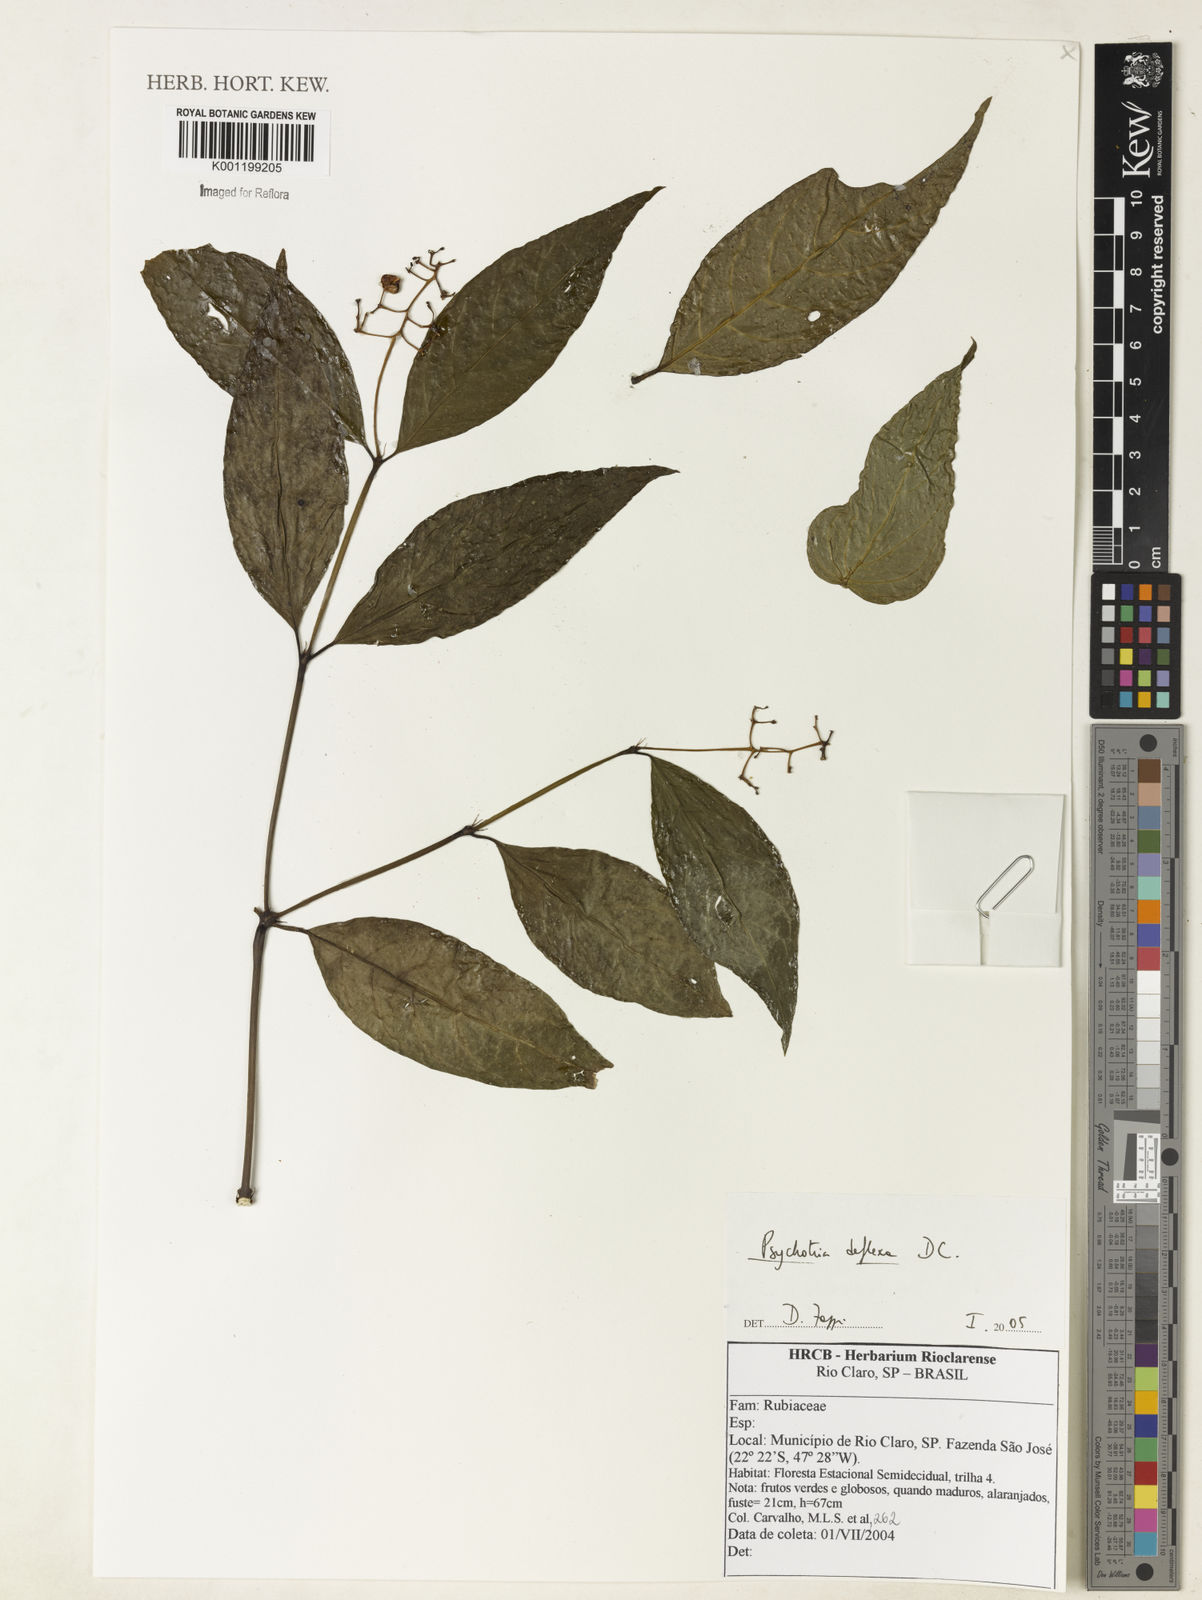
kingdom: Plantae
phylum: Tracheophyta
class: Magnoliopsida
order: Gentianales
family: Rubiaceae
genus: Palicourea
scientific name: Palicourea deflexa
